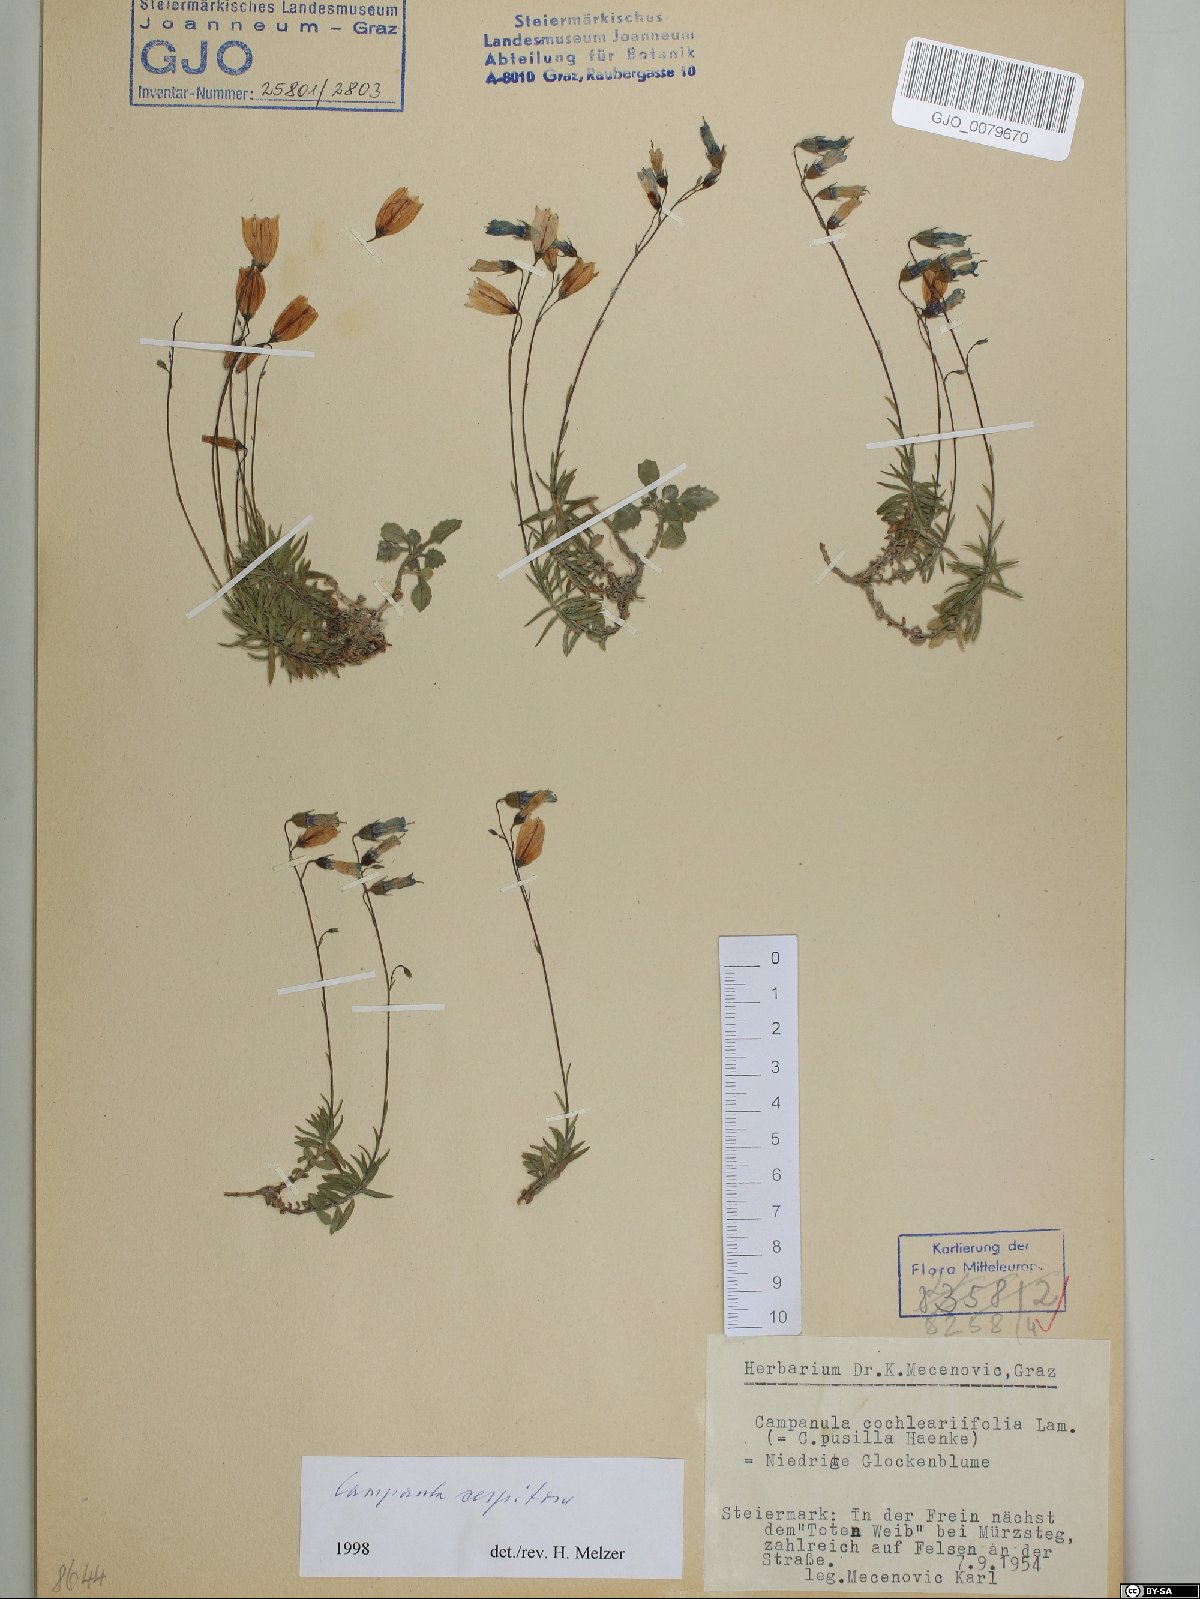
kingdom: Plantae
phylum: Tracheophyta
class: Magnoliopsida
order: Asterales
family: Campanulaceae
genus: Campanula
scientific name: Campanula cespitosa
